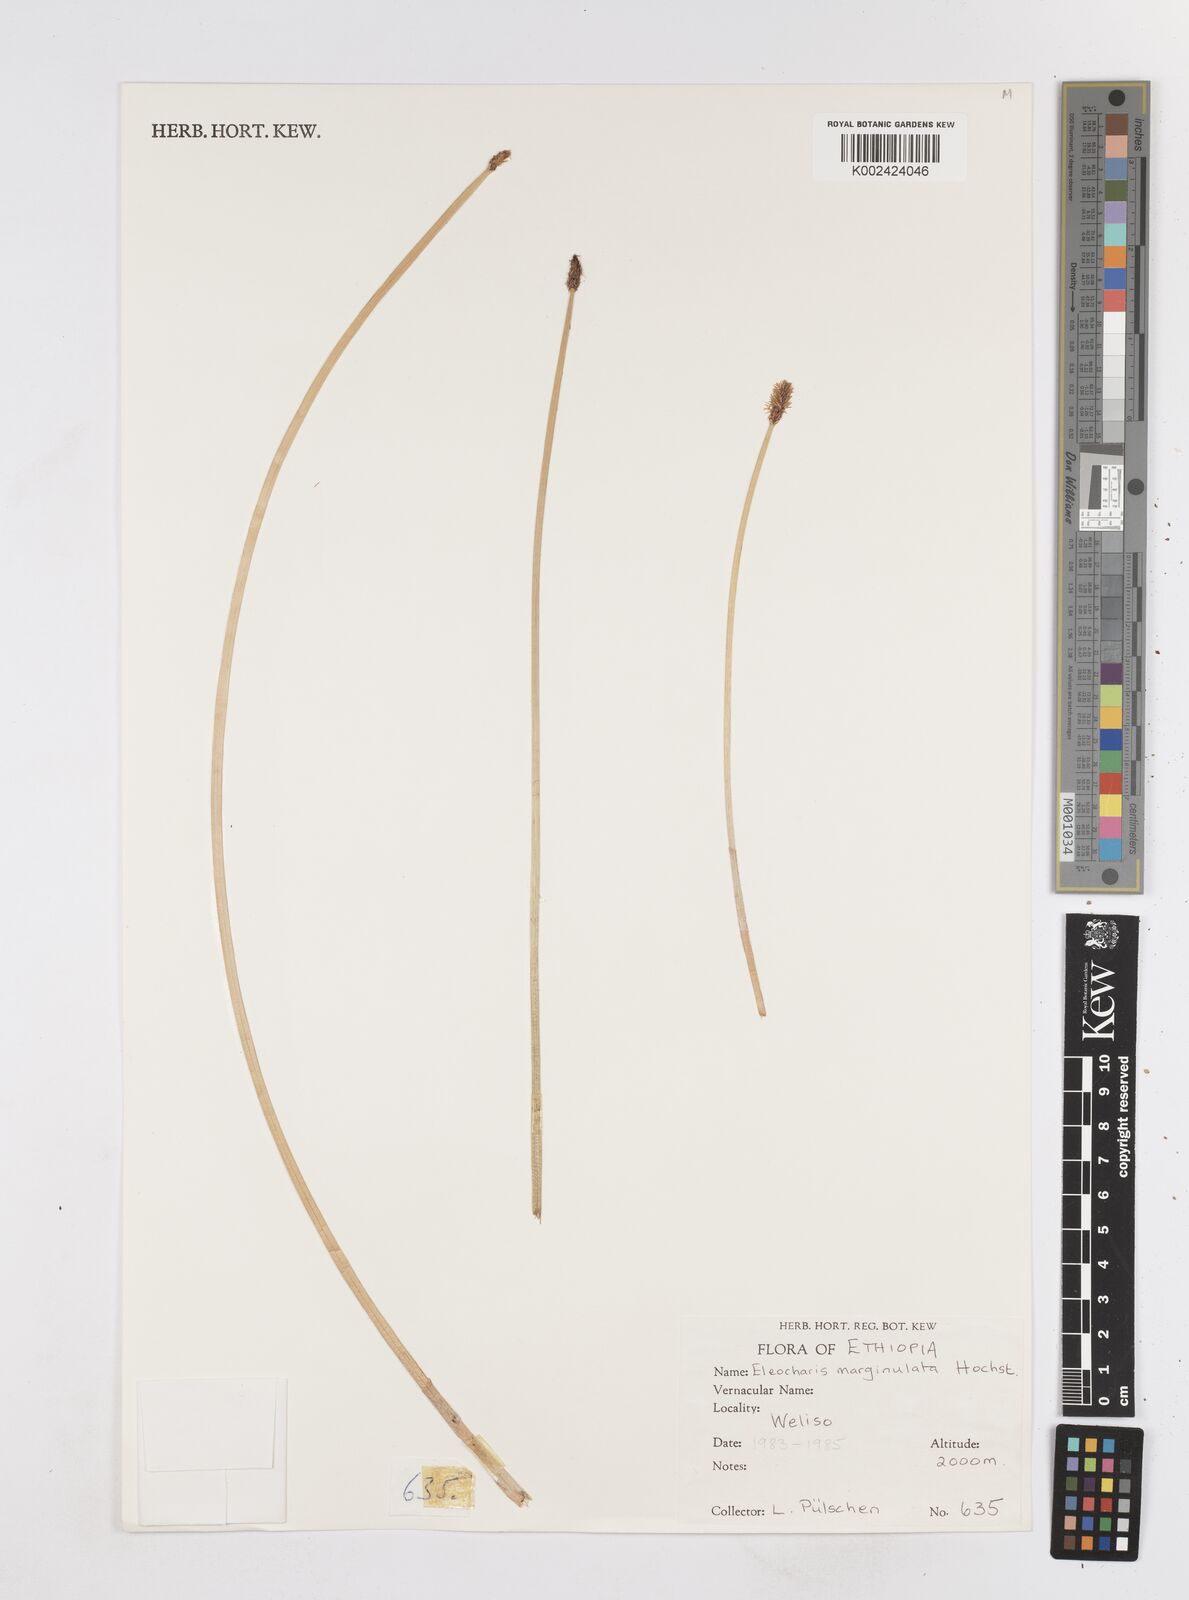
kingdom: Plantae
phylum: Tracheophyta
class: Liliopsida
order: Poales
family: Cyperaceae
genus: Eleocharis
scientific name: Eleocharis marginulata
